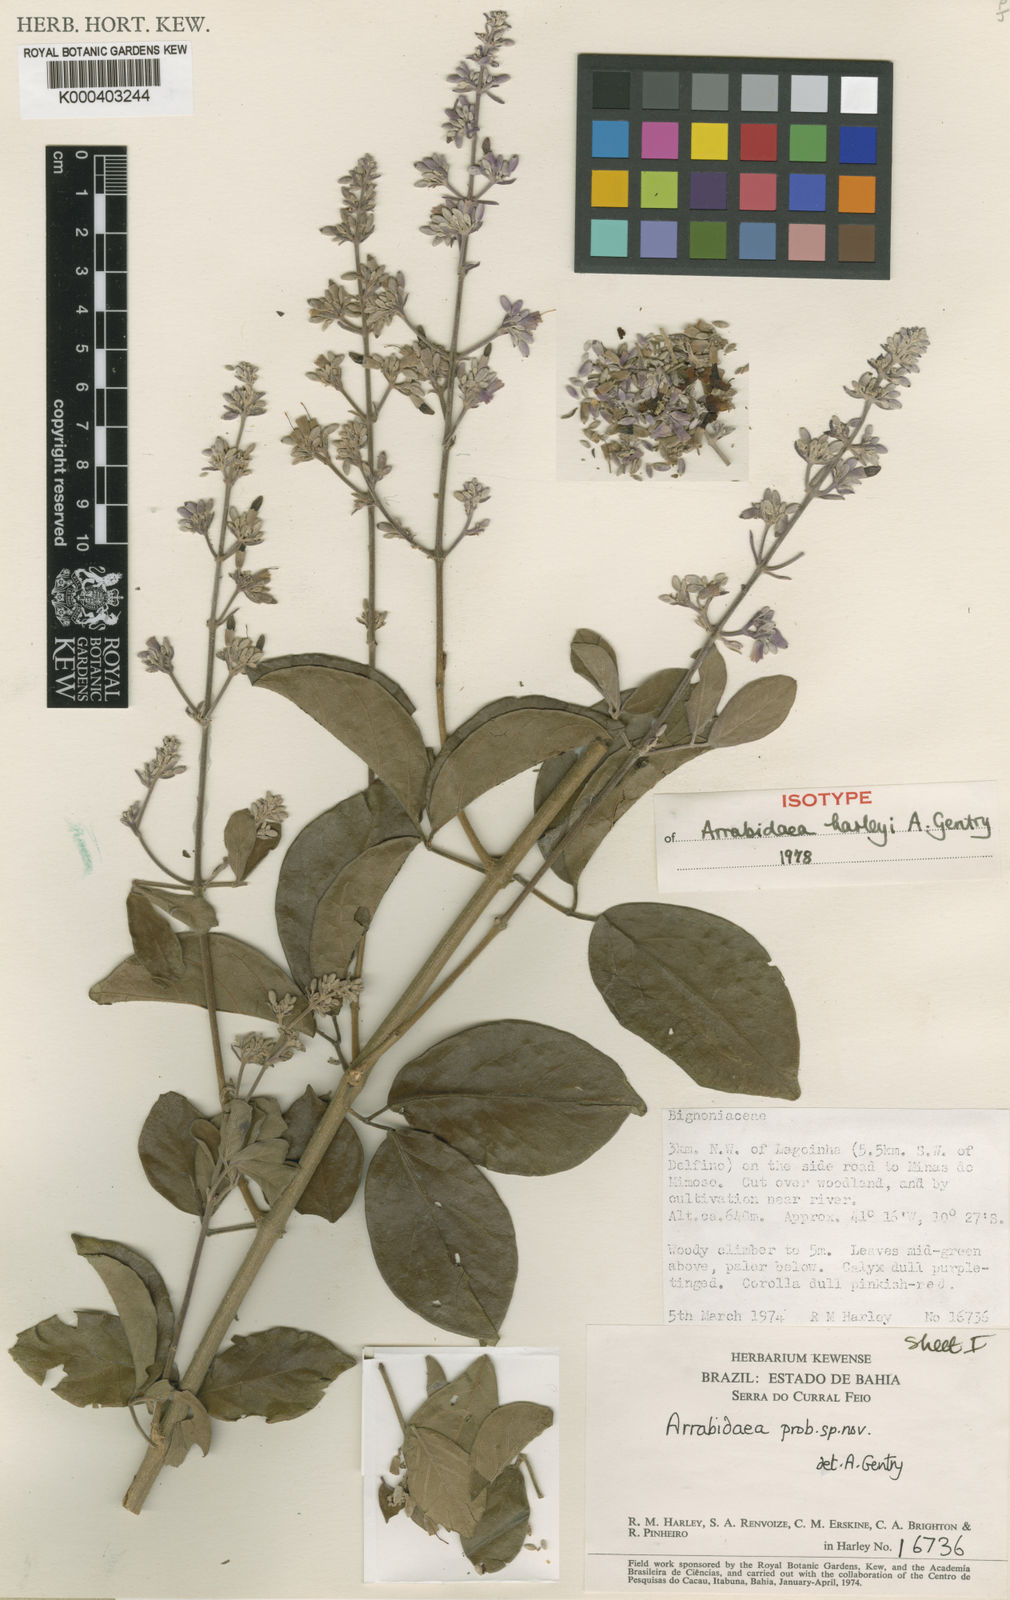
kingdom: Plantae
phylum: Tracheophyta
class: Magnoliopsida
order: Lamiales
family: Bignoniaceae
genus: Xylophragma
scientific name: Xylophragma harleyi
